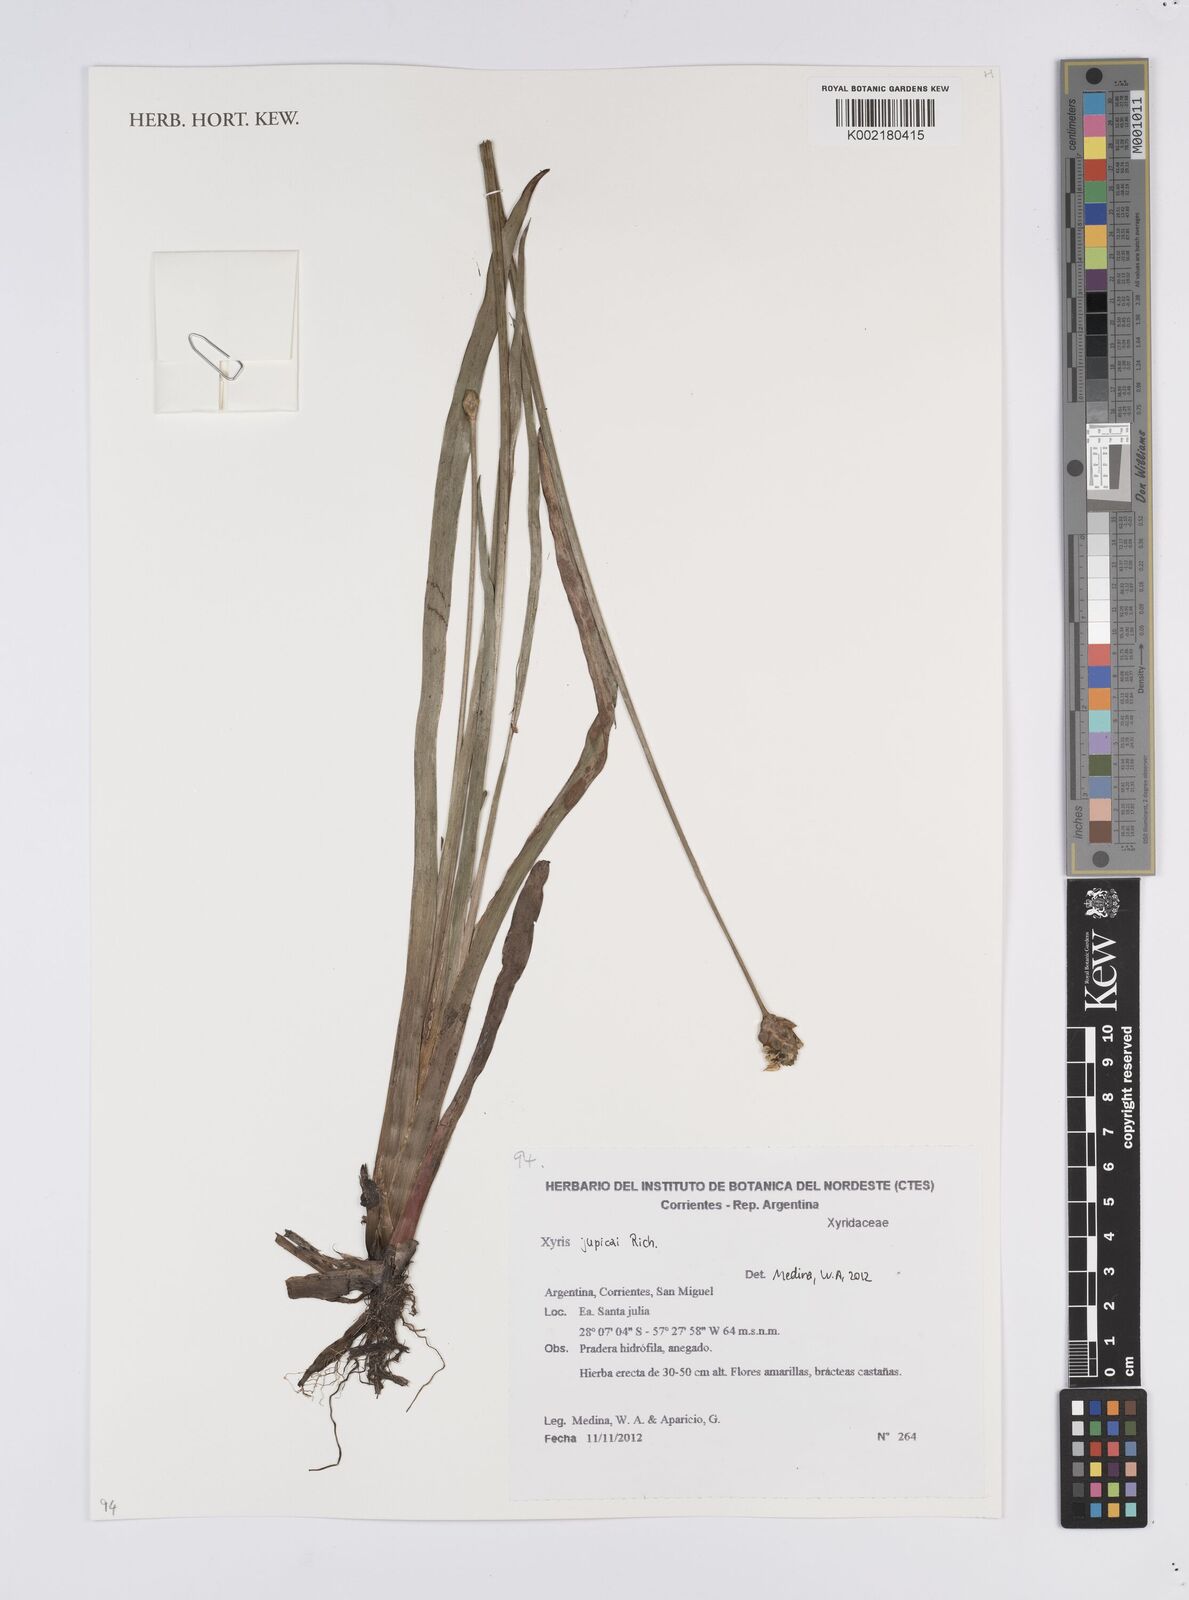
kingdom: Plantae
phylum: Tracheophyta
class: Liliopsida
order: Poales
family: Xyridaceae
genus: Xyris
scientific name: Xyris jupicai
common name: Richard's yelloweyed grass
